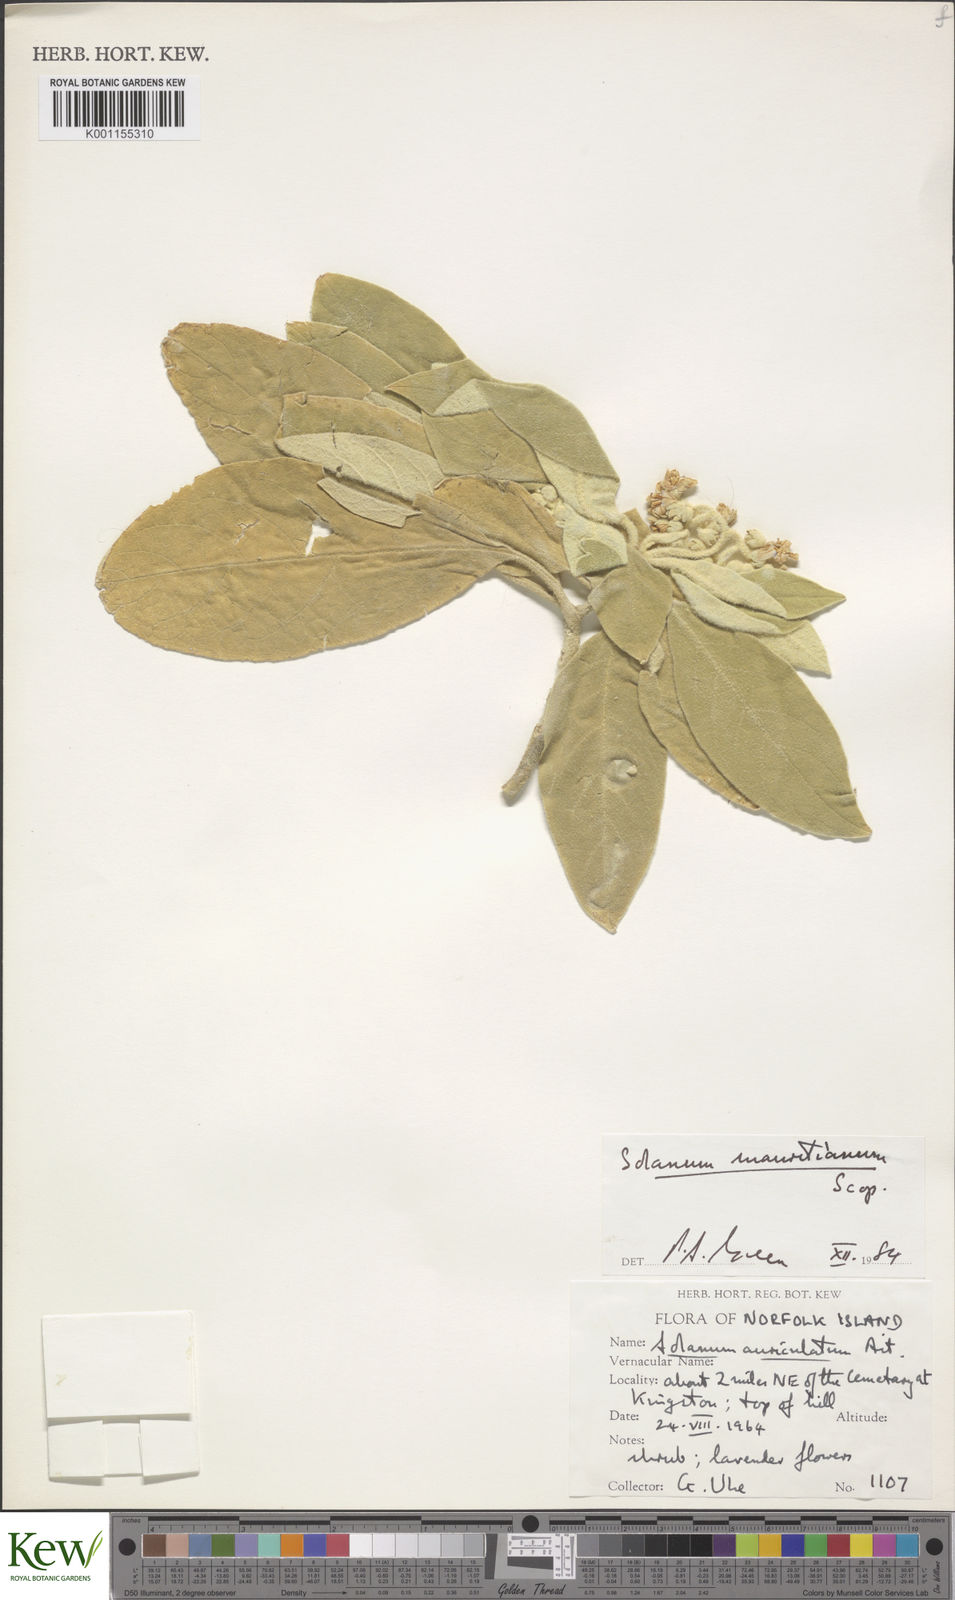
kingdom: Plantae
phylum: Tracheophyta
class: Magnoliopsida
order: Solanales
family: Solanaceae
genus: Solanum
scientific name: Solanum mauritianum
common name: Earleaf nightshade
